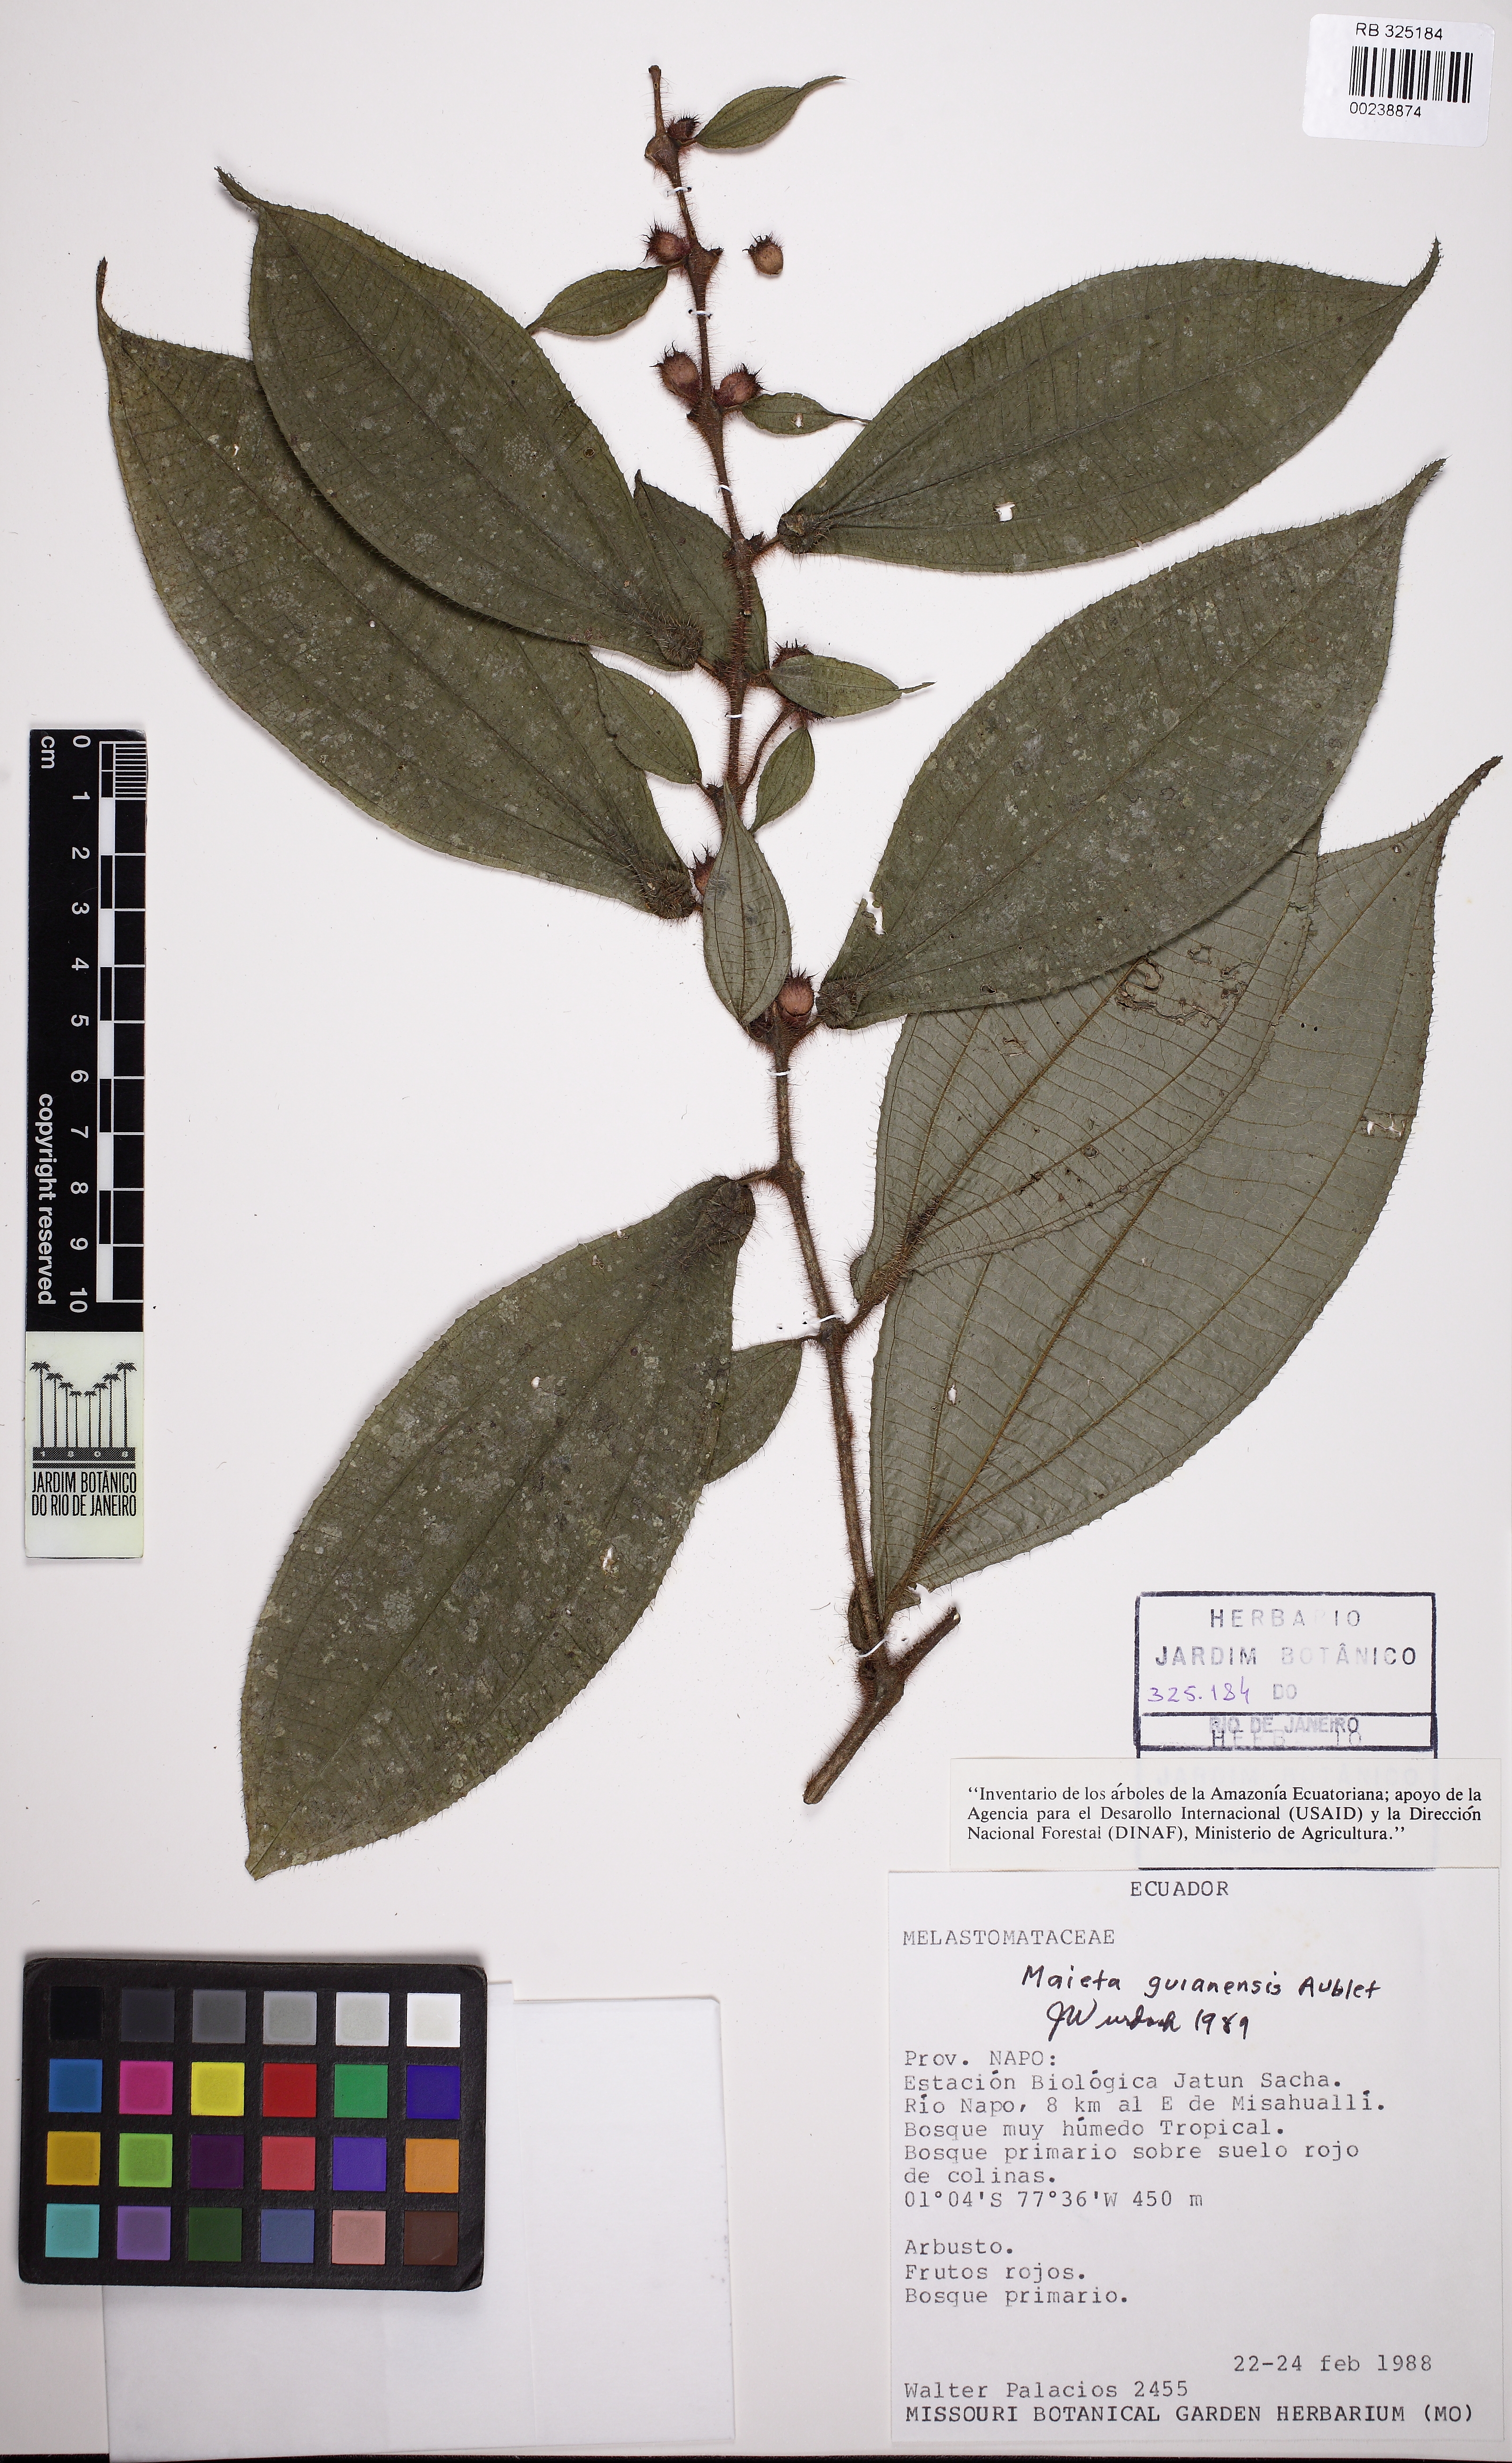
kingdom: Plantae
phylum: Tracheophyta
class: Magnoliopsida
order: Myrtales
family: Melastomataceae
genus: Miconia
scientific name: Miconia mayeta
